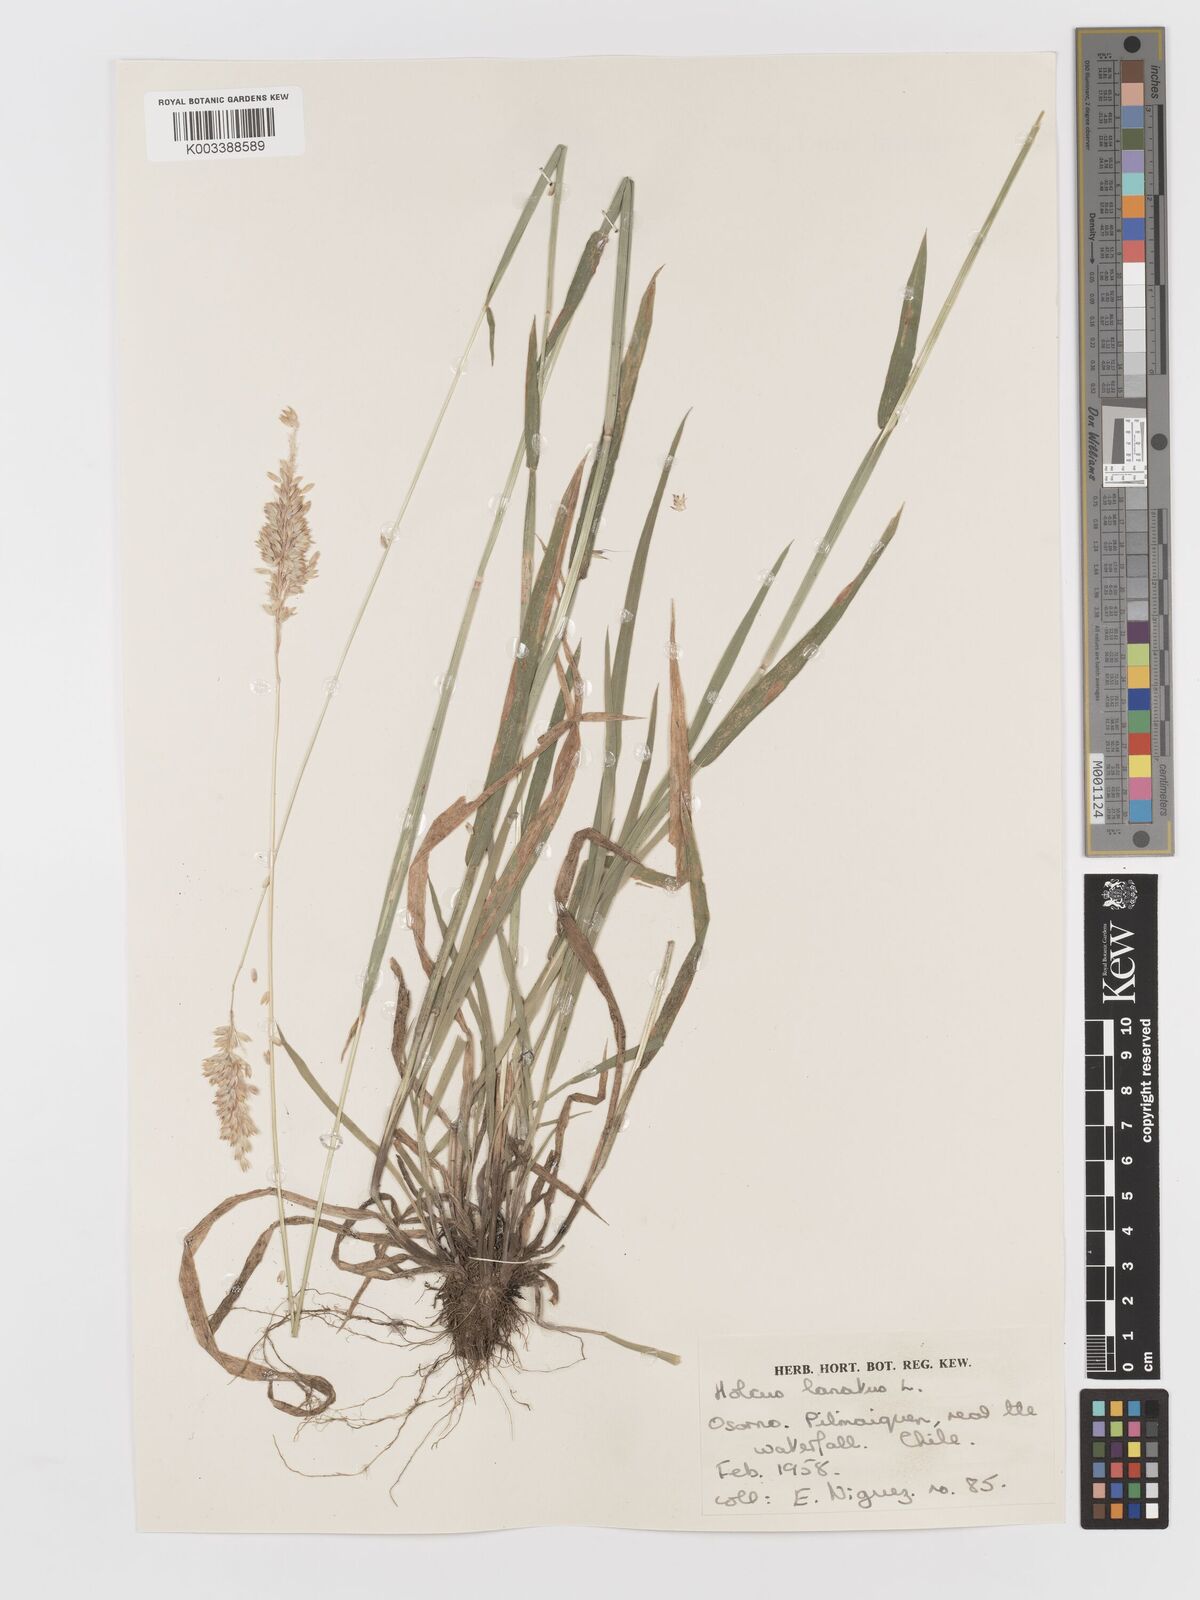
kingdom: Plantae
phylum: Tracheophyta
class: Liliopsida
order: Poales
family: Poaceae
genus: Holcus
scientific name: Holcus lanatus
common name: Yorkshire-fog
